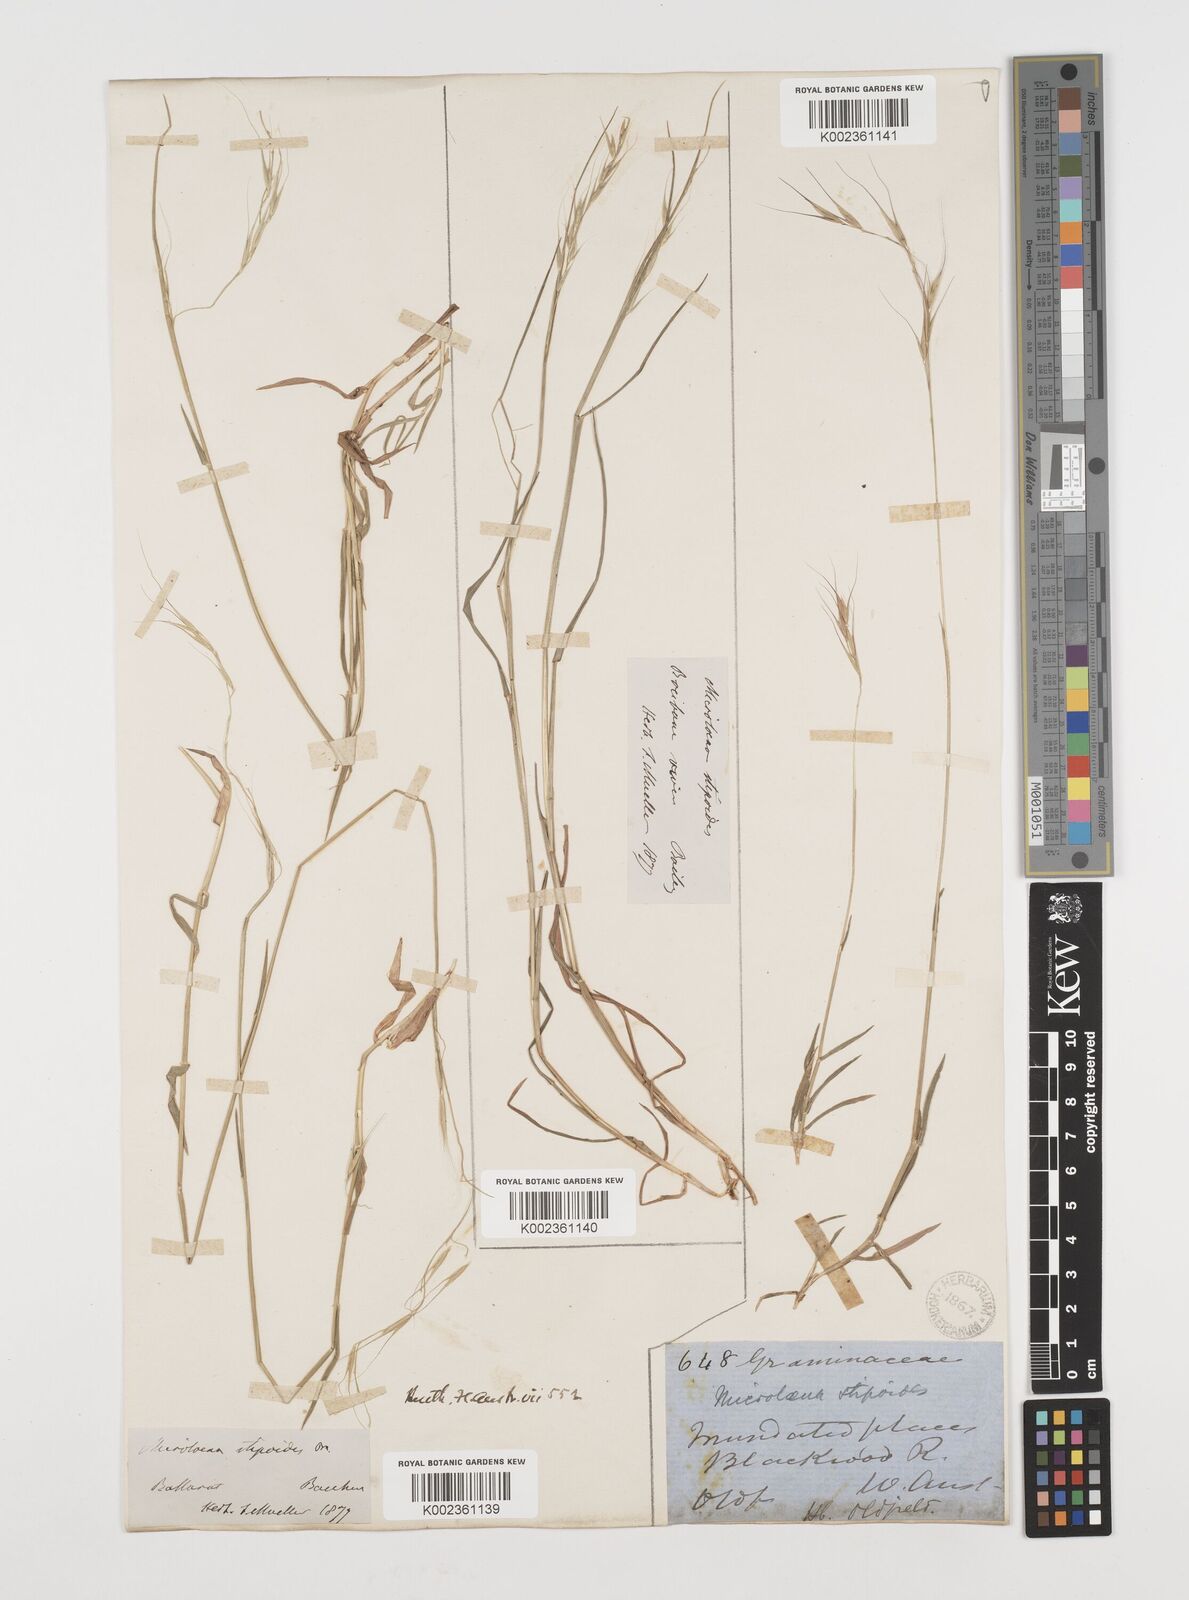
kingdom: Plantae
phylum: Tracheophyta
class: Liliopsida
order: Poales
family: Poaceae
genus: Microlaena
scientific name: Microlaena stipoides
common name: Meadow ricegrass
